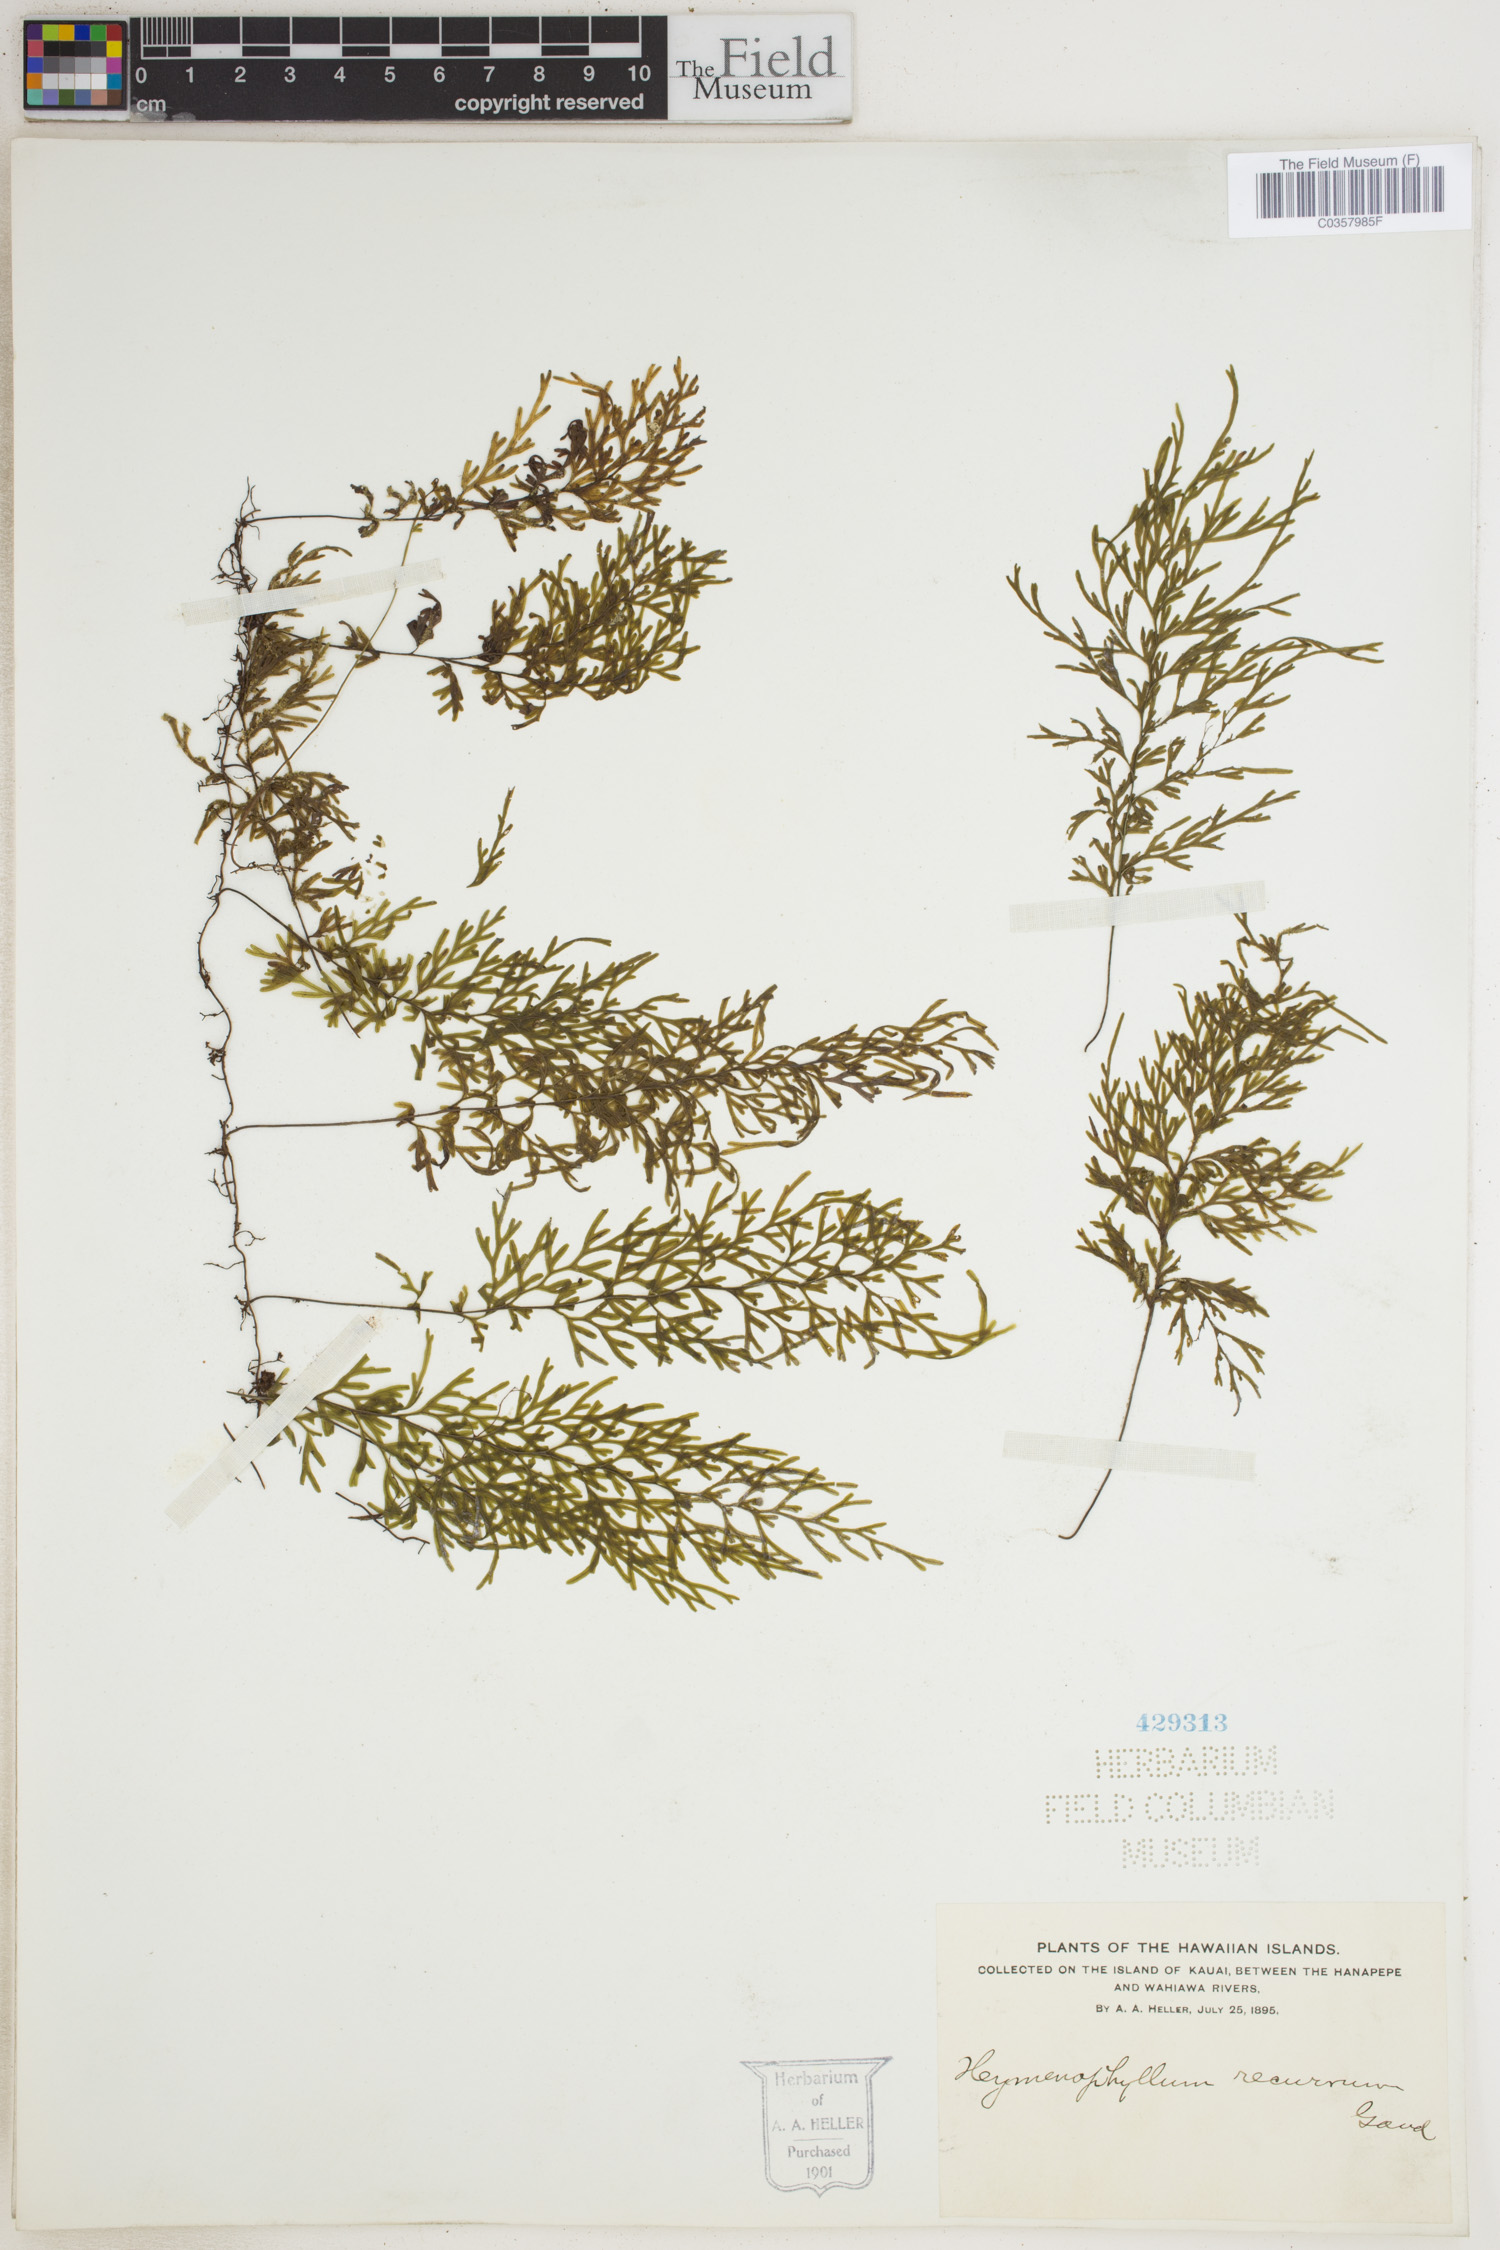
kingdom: Plantae
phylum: Tracheophyta
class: Polypodiopsida
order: Hymenophyllales
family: Hymenophyllaceae
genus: Hymenophyllum
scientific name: Hymenophyllum recurvum
